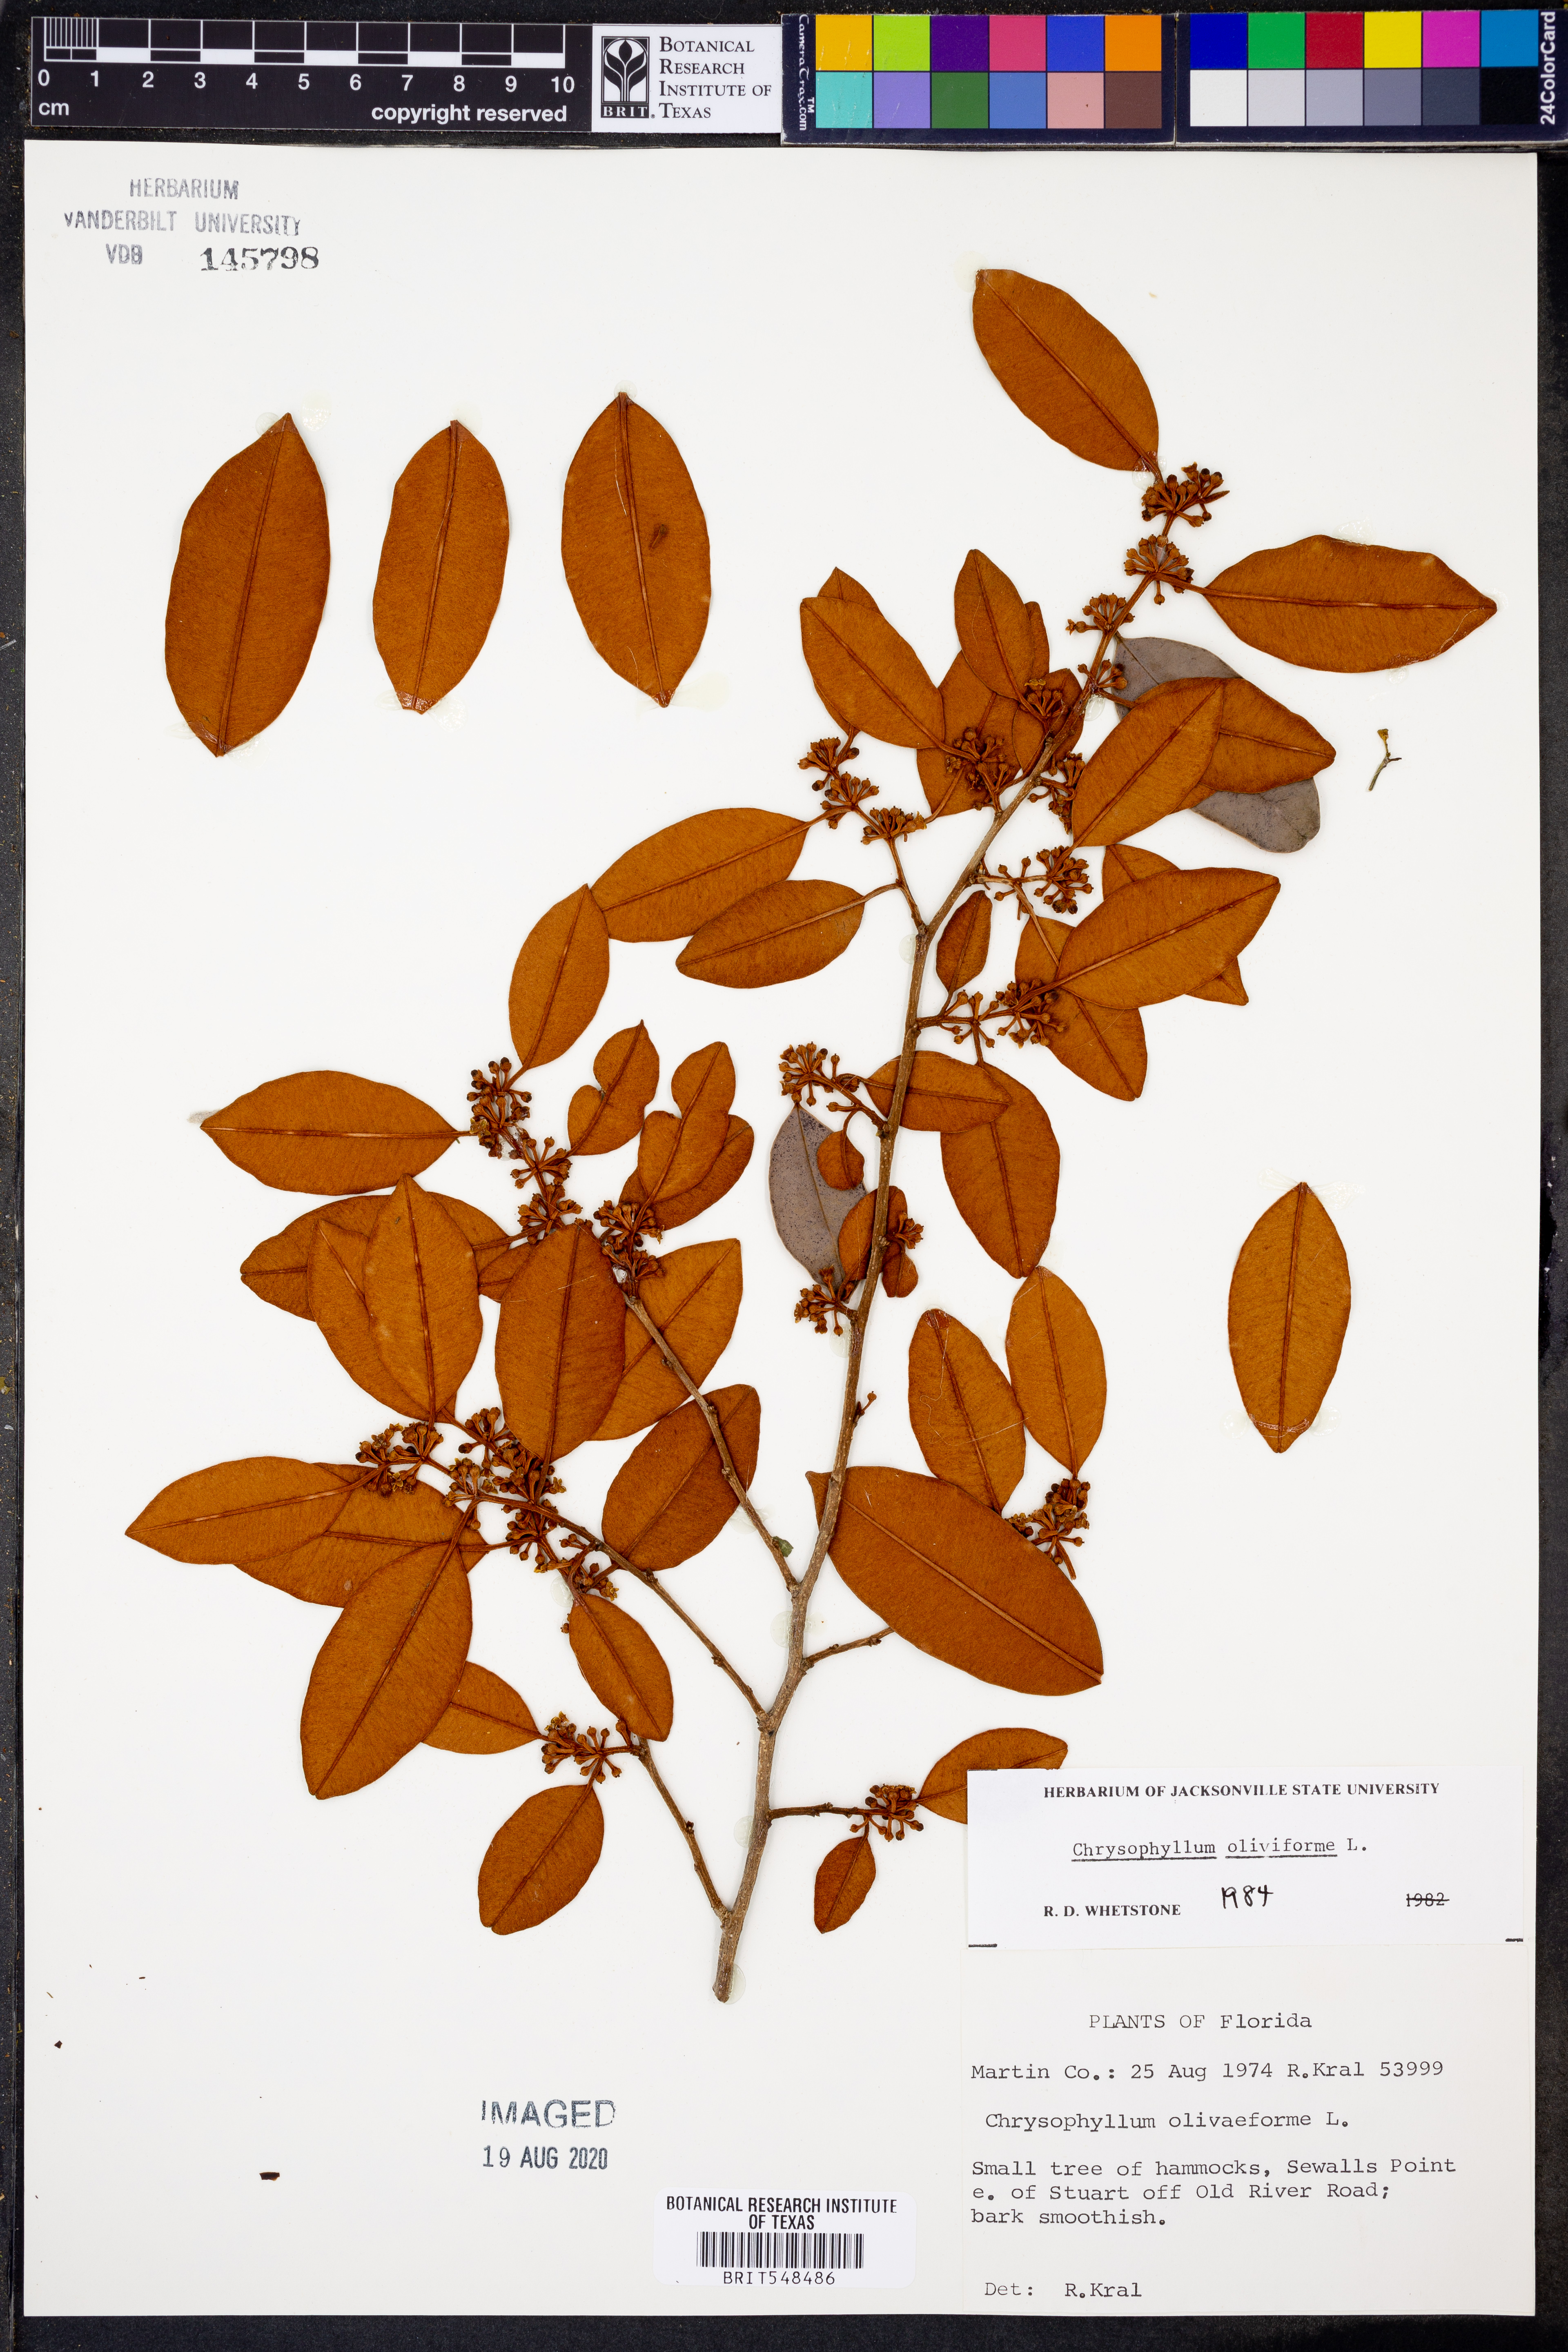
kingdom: Plantae
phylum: Tracheophyta
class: Magnoliopsida
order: Ericales
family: Sapotaceae
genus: Chrysophyllum
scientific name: Chrysophyllum oliviforme
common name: Satinleaf
